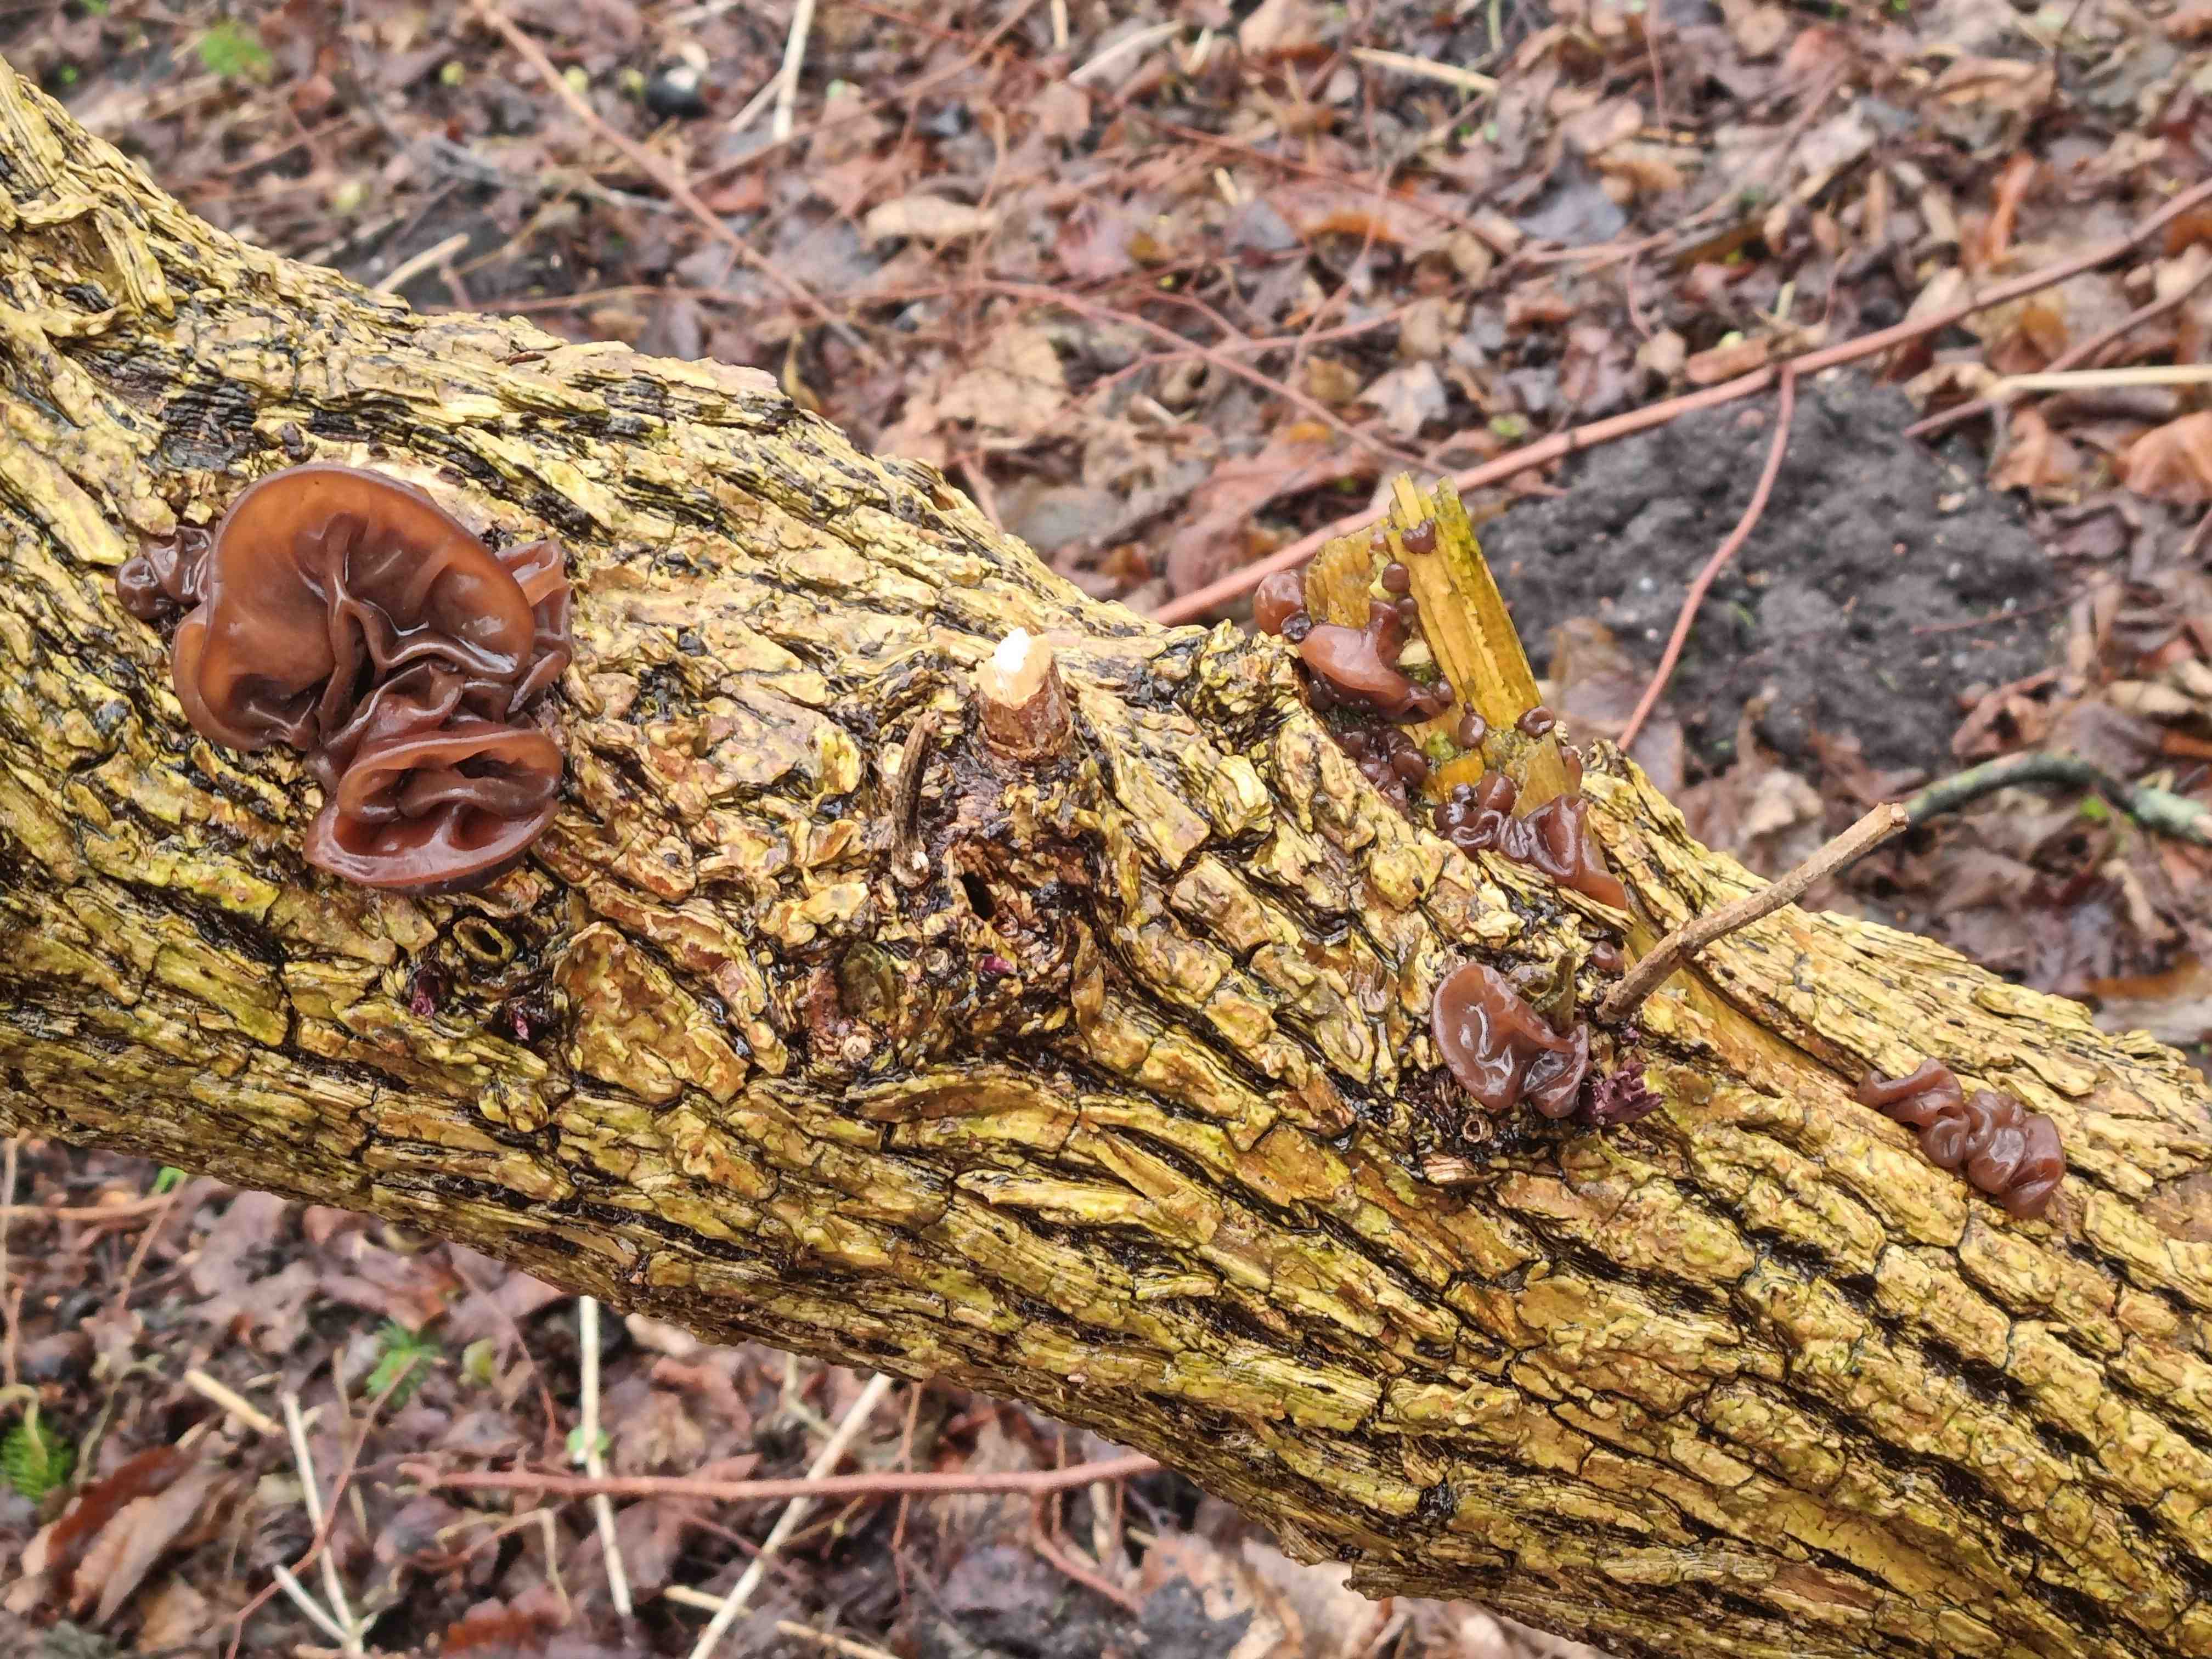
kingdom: Fungi
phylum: Basidiomycota
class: Agaricomycetes
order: Auriculariales
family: Auriculariaceae
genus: Auricularia
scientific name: Auricularia auricula-judae
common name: almindelig judasøre
